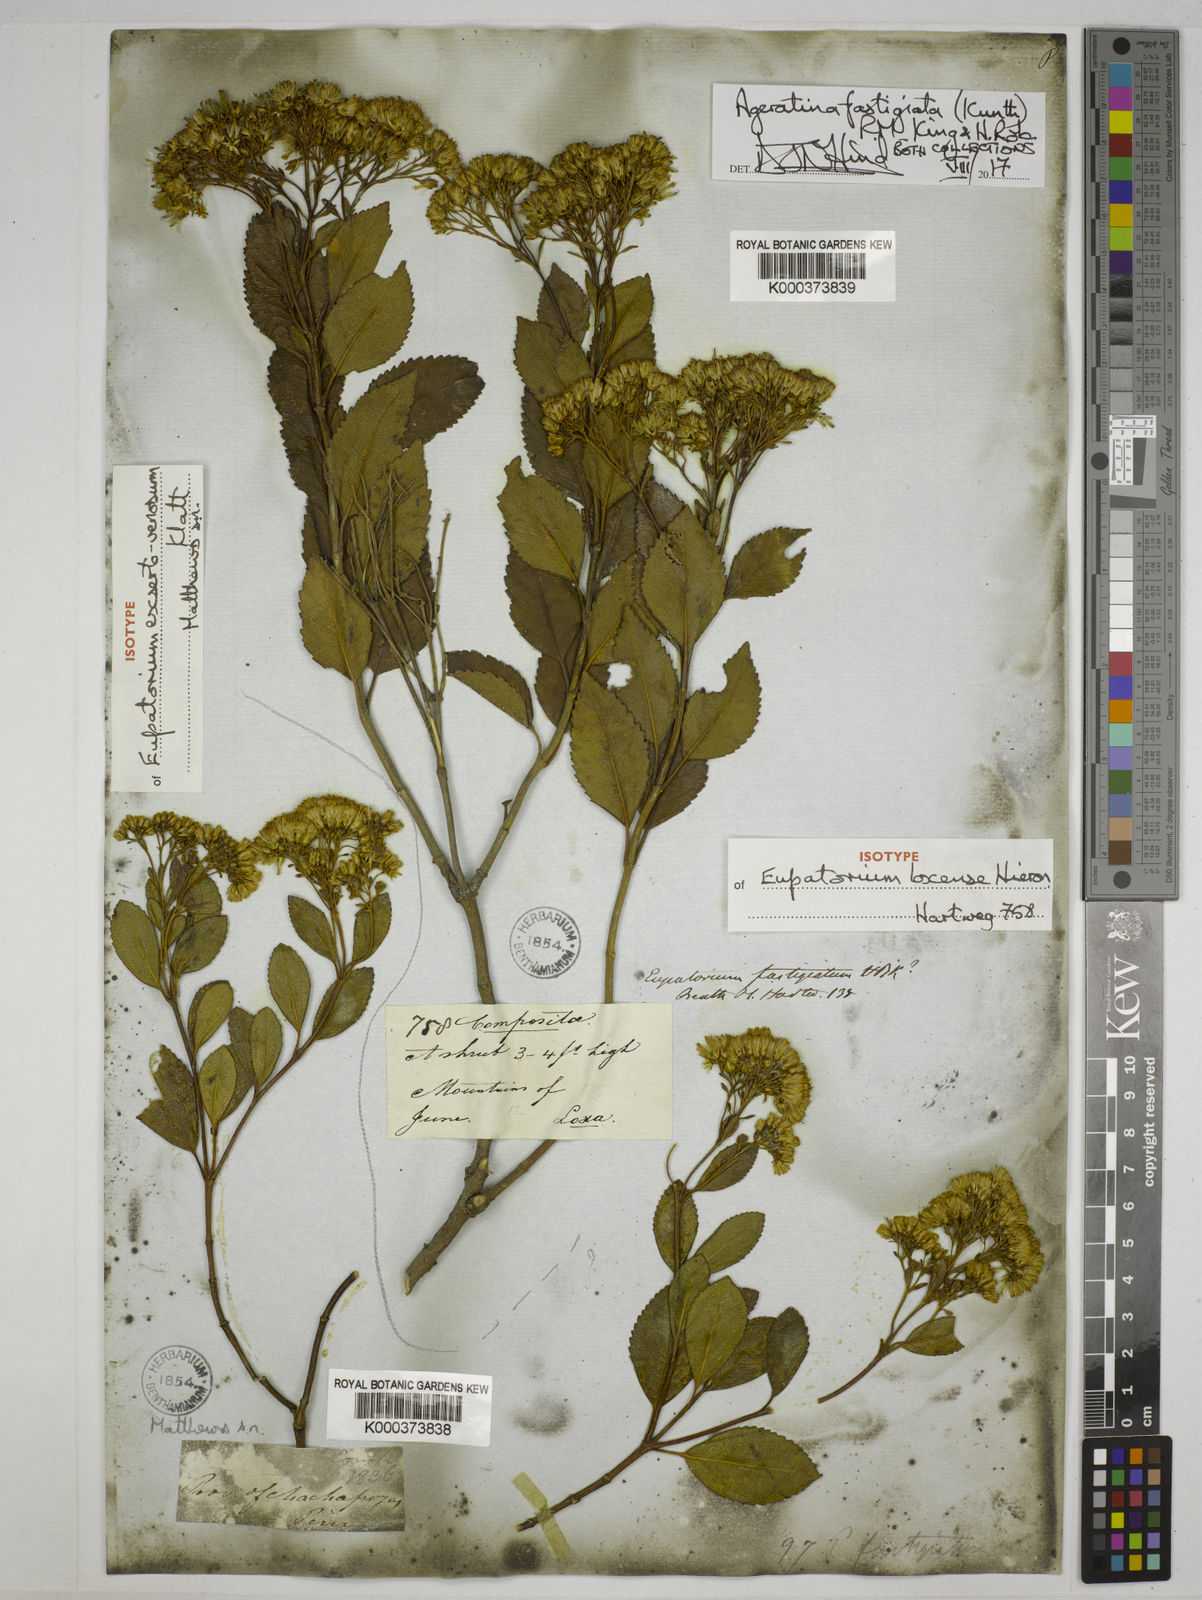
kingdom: Plantae
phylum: Tracheophyta
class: Magnoliopsida
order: Asterales
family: Asteraceae
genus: Ageratina
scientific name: Ageratina fastigiata
